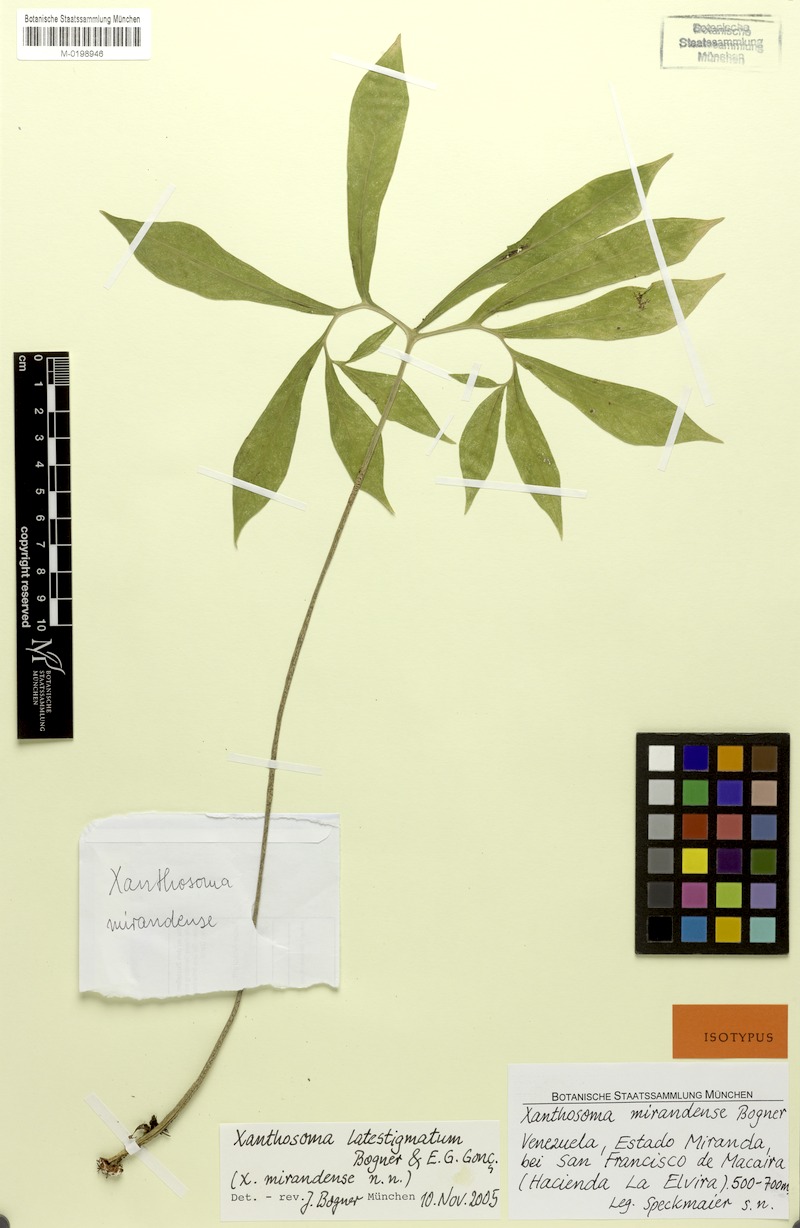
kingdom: Plantae
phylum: Tracheophyta
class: Liliopsida
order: Alismatales
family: Araceae
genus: Xanthosoma
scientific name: Xanthosoma latestigmatum
